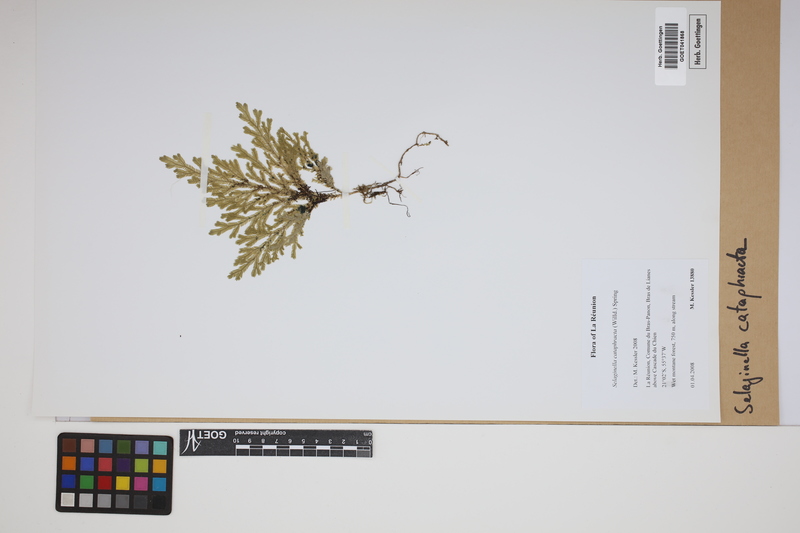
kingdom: Plantae
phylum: Tracheophyta
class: Lycopodiopsida
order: Selaginellales
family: Selaginellaceae
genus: Selaginella
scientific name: Selaginella cataphracta
